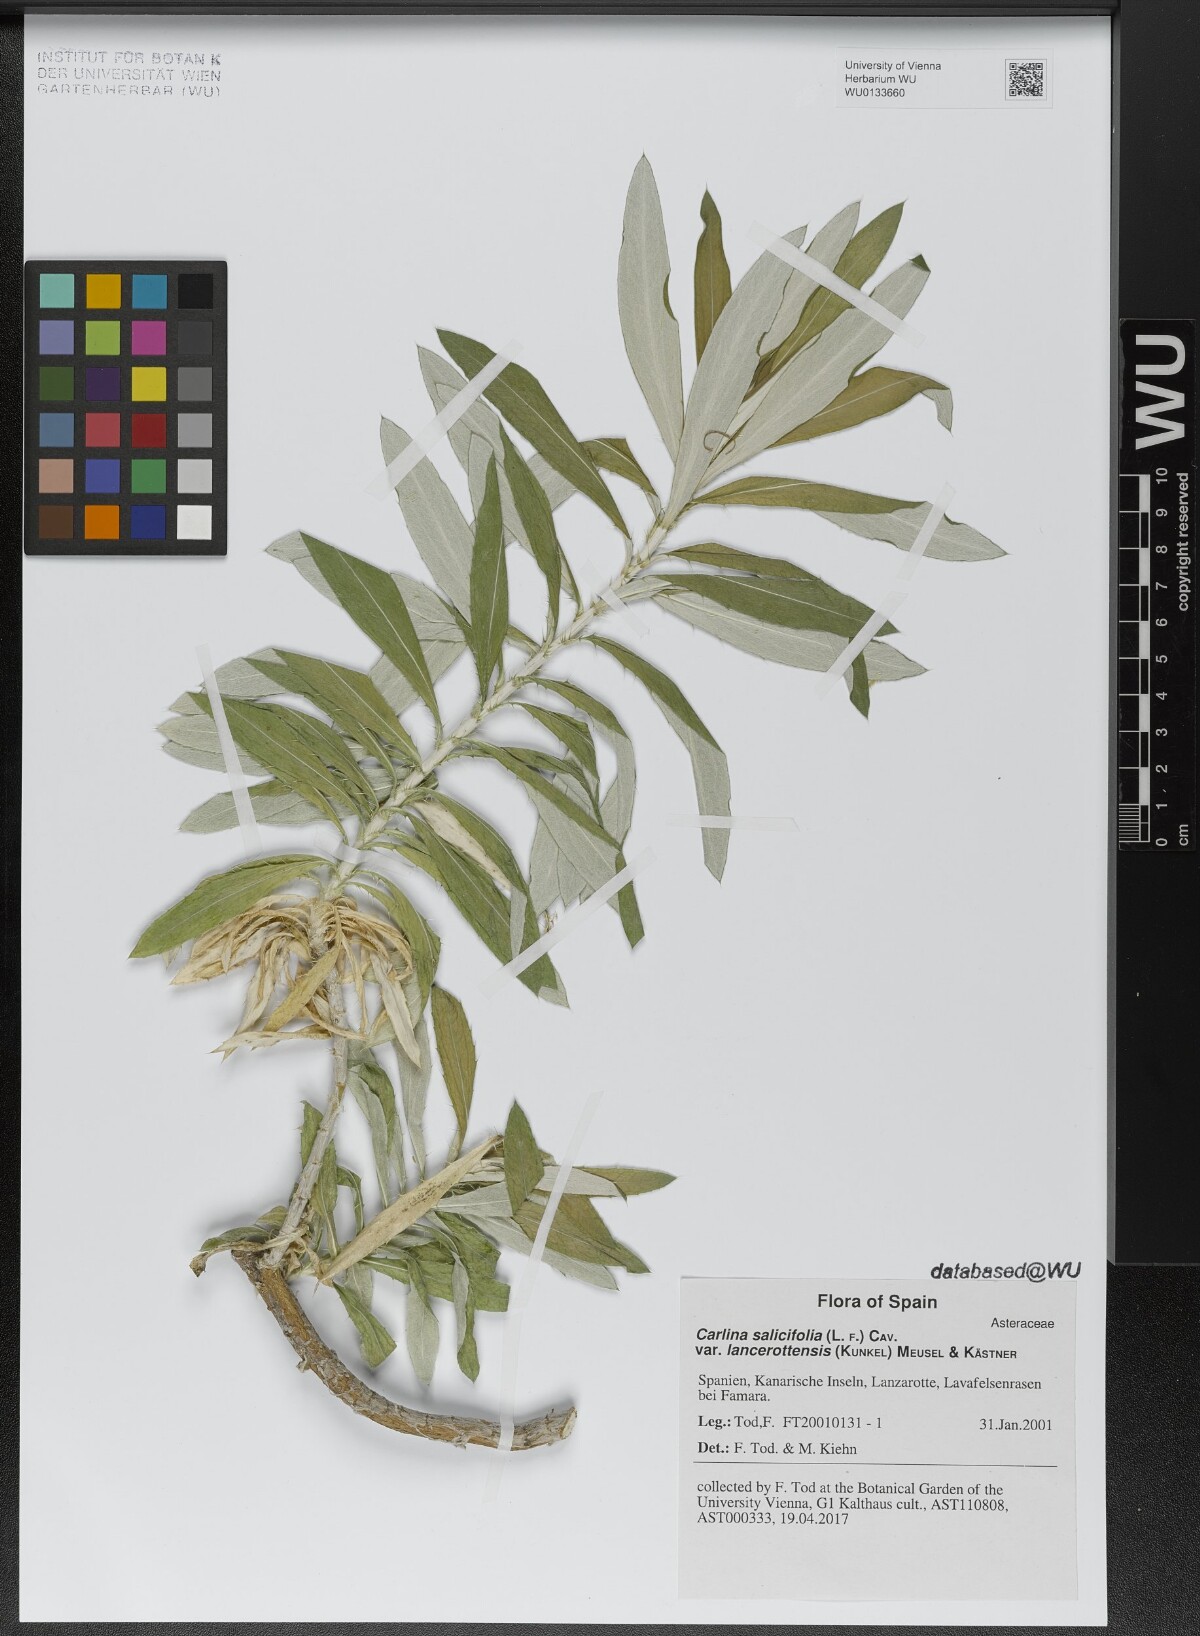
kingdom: Plantae
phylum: Tracheophyta
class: Magnoliopsida
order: Asterales
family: Asteraceae
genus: Carlina
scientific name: Carlina salicifolia
